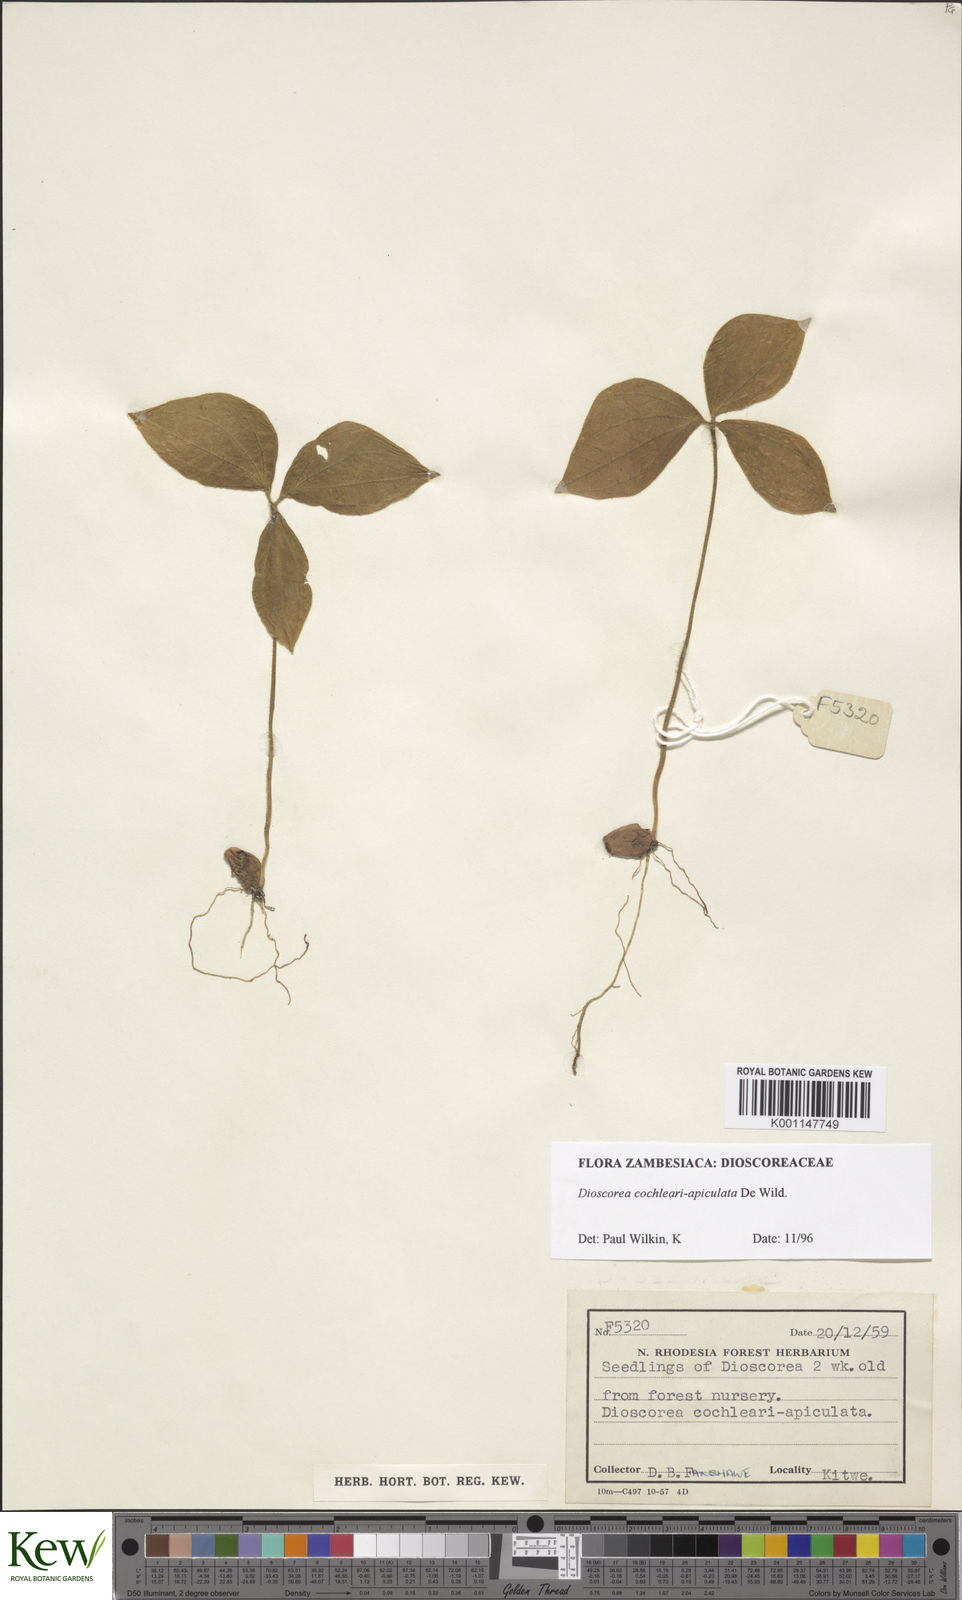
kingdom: Plantae
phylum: Tracheophyta
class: Liliopsida
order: Dioscoreales
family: Dioscoreaceae
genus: Dioscorea
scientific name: Dioscorea cochleariapiculata
